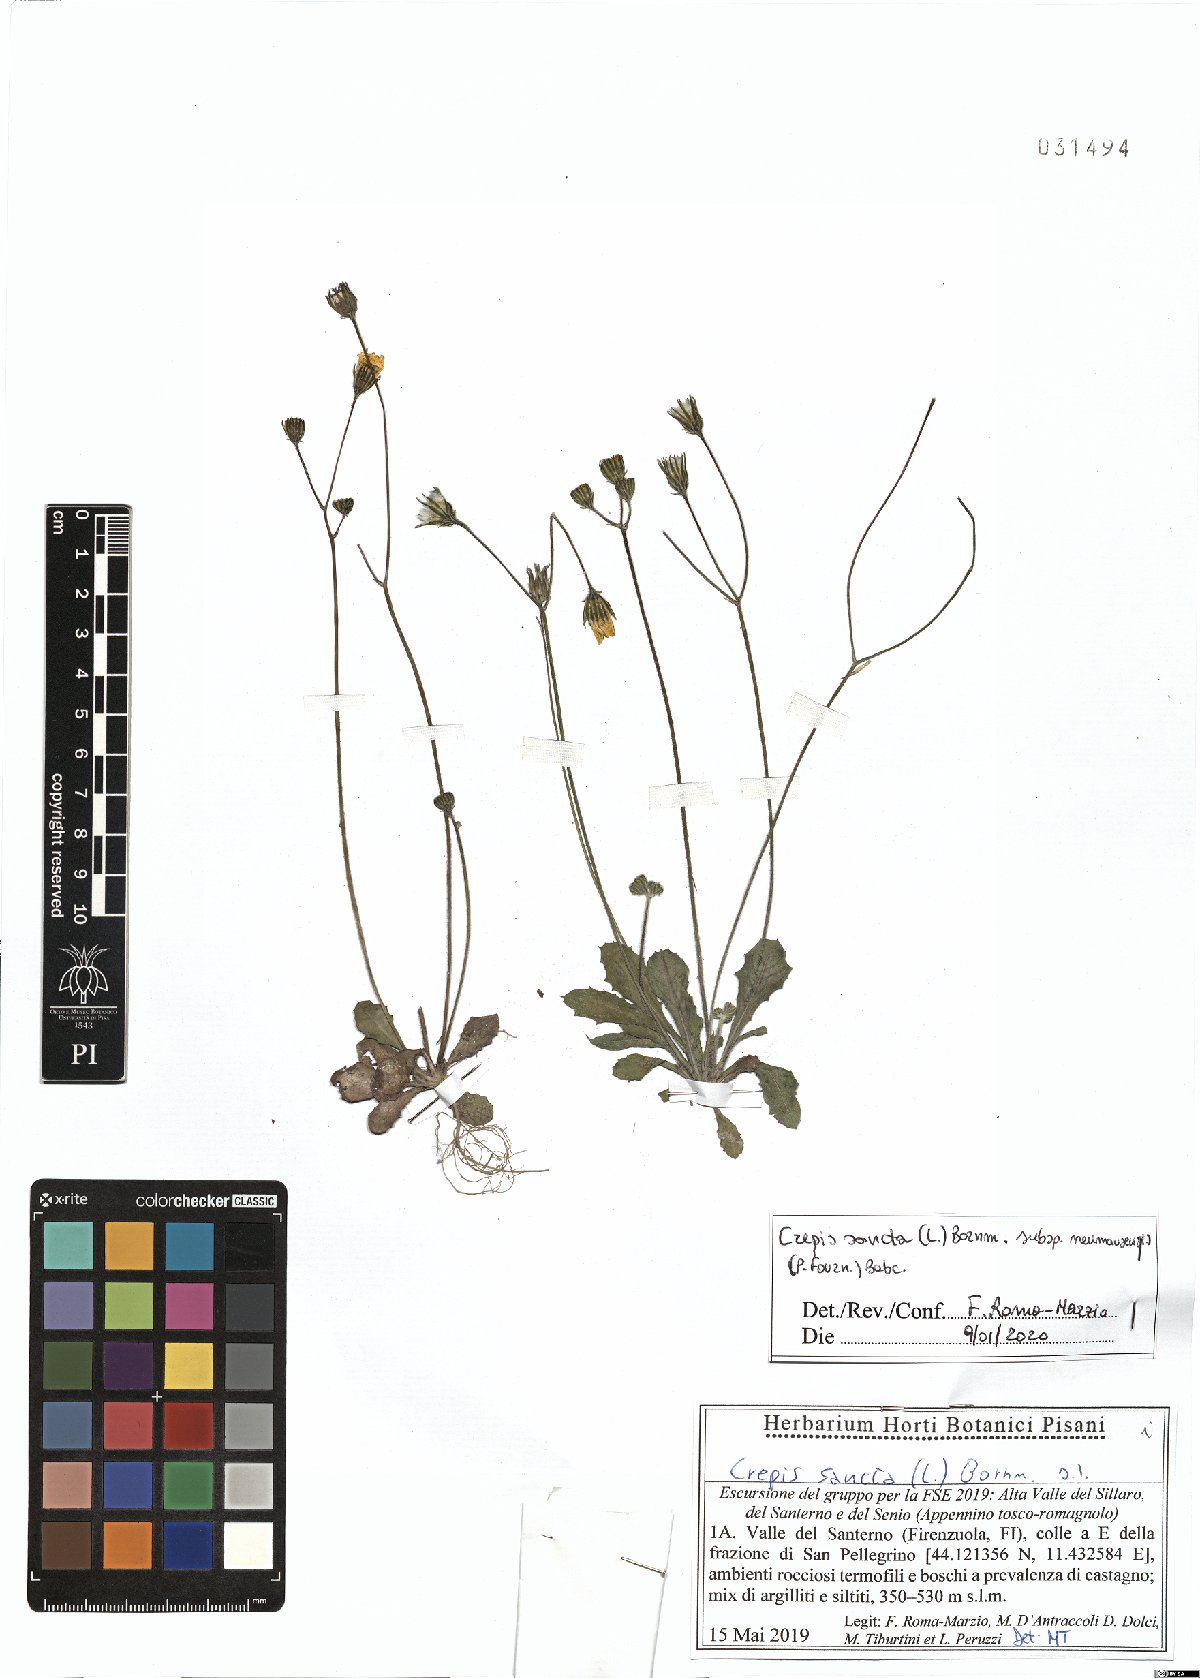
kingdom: Plantae
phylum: Tracheophyta
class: Magnoliopsida
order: Asterales
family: Asteraceae
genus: Crepis
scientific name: Crepis sancta
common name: Hawk's-beard
